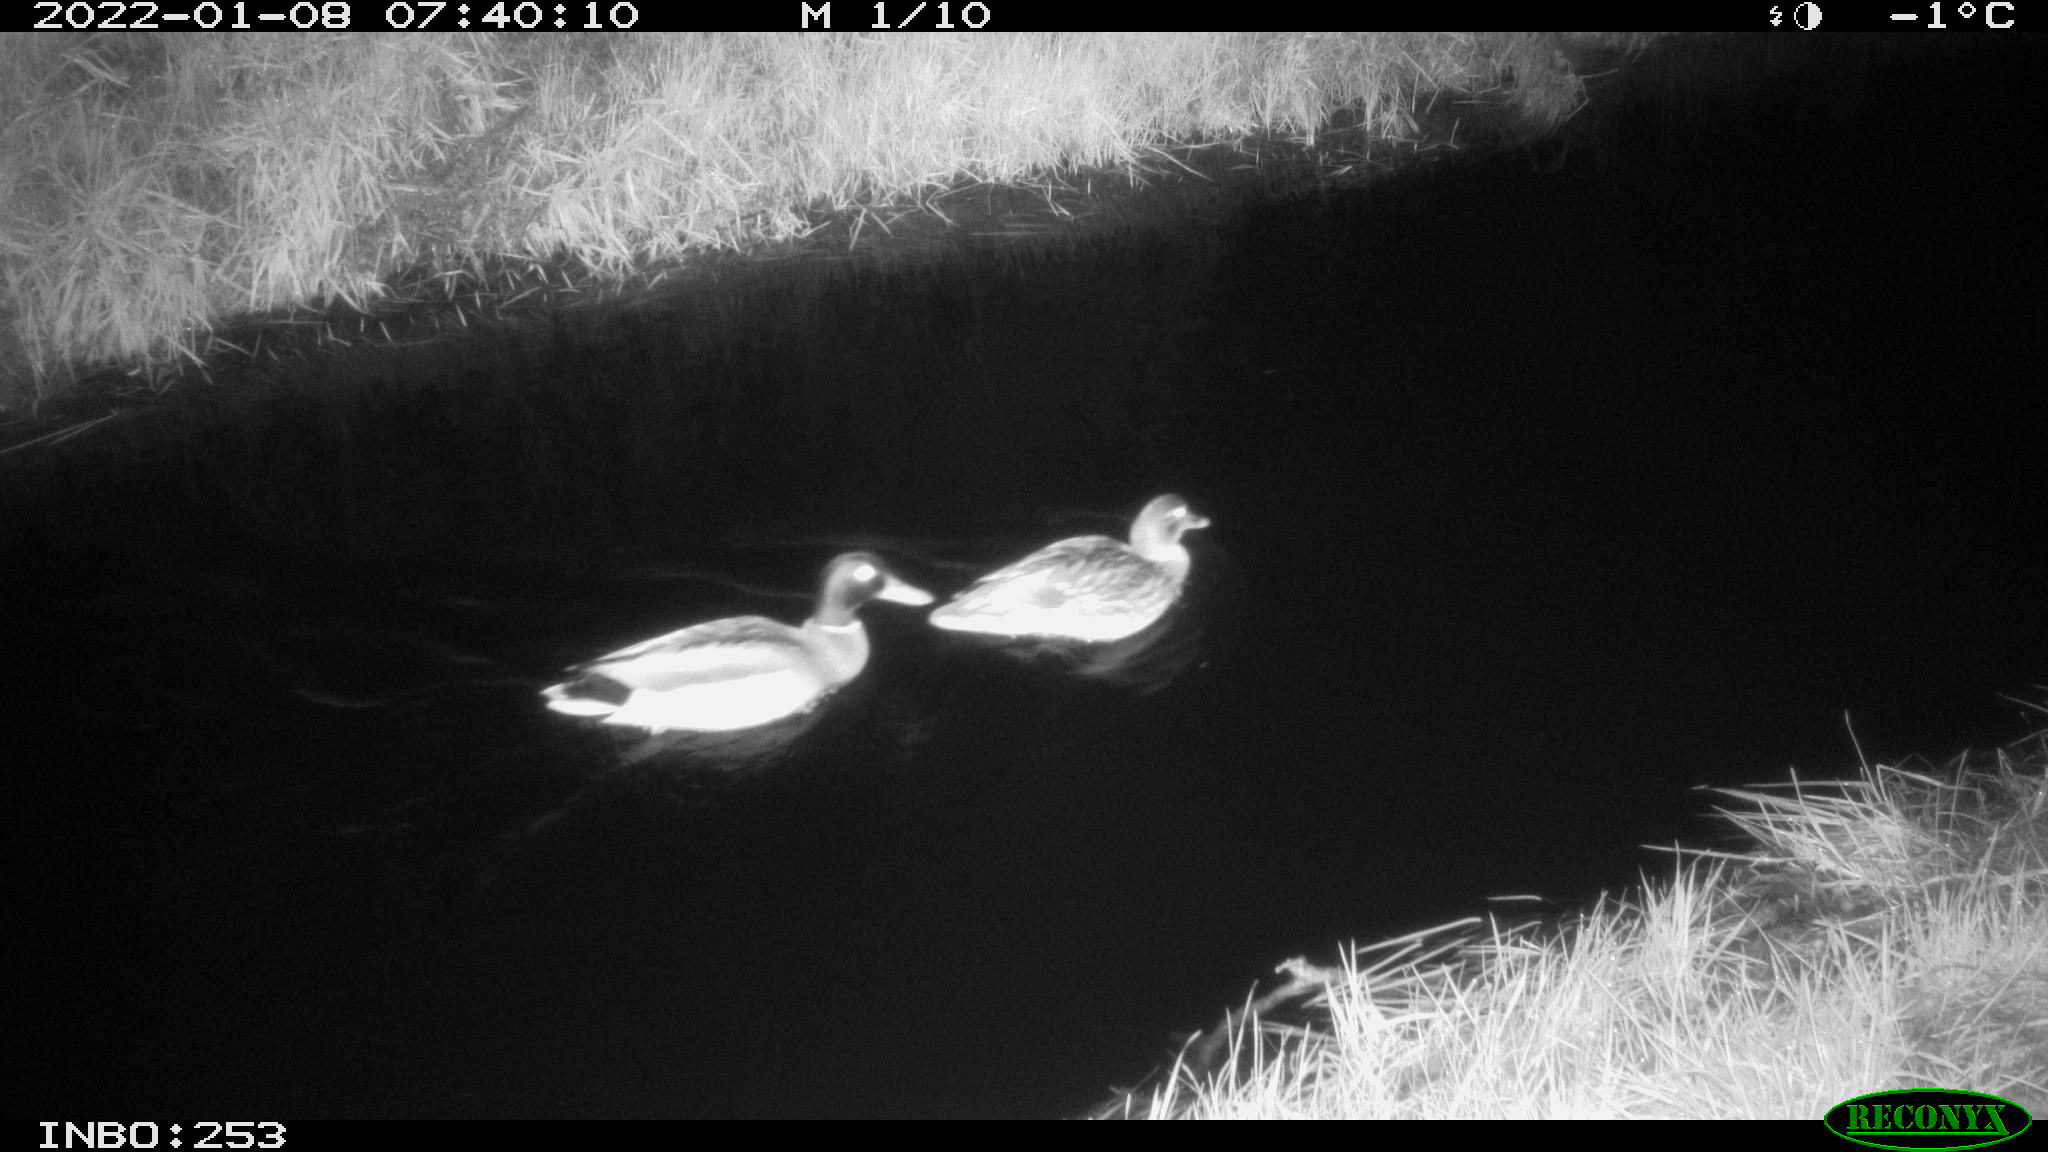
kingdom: Animalia
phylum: Chordata
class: Aves
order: Anseriformes
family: Anatidae
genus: Anas
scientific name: Anas
